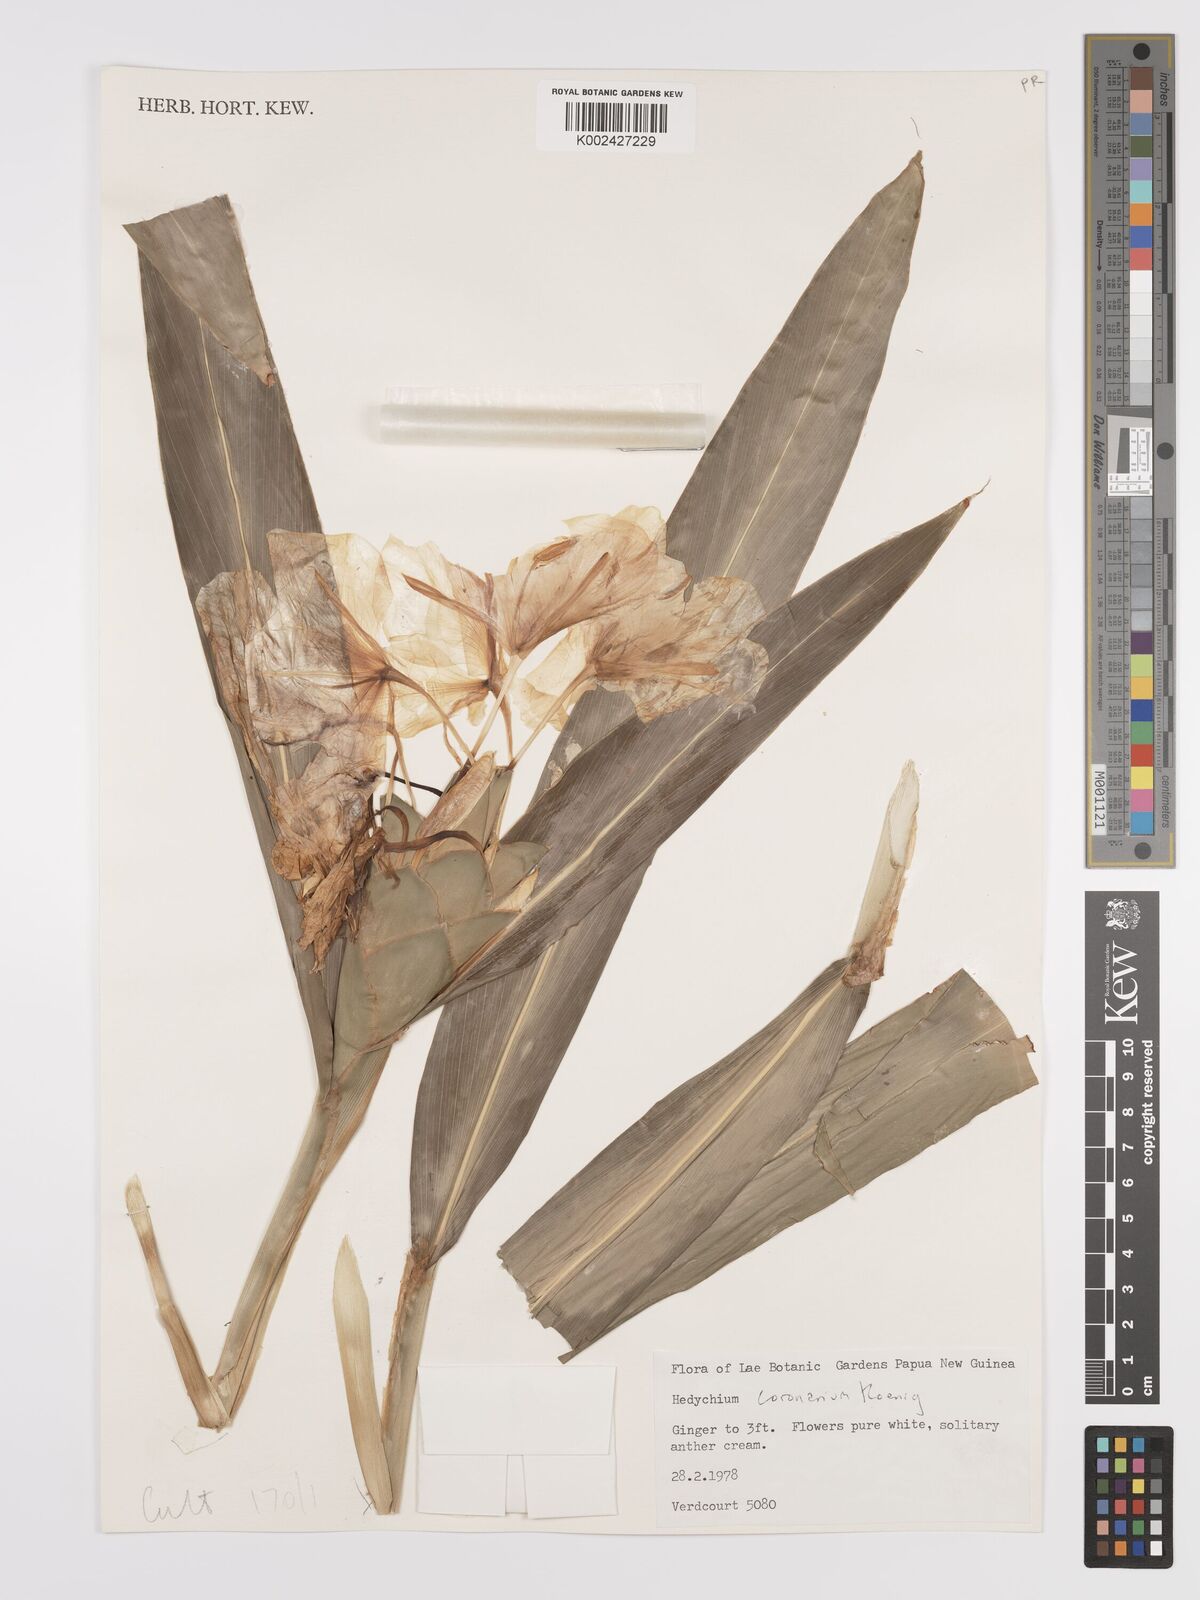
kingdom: Plantae
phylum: Tracheophyta
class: Liliopsida
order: Zingiberales
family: Zingiberaceae
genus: Hedychium
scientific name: Hedychium coronarium
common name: White garland-lily
